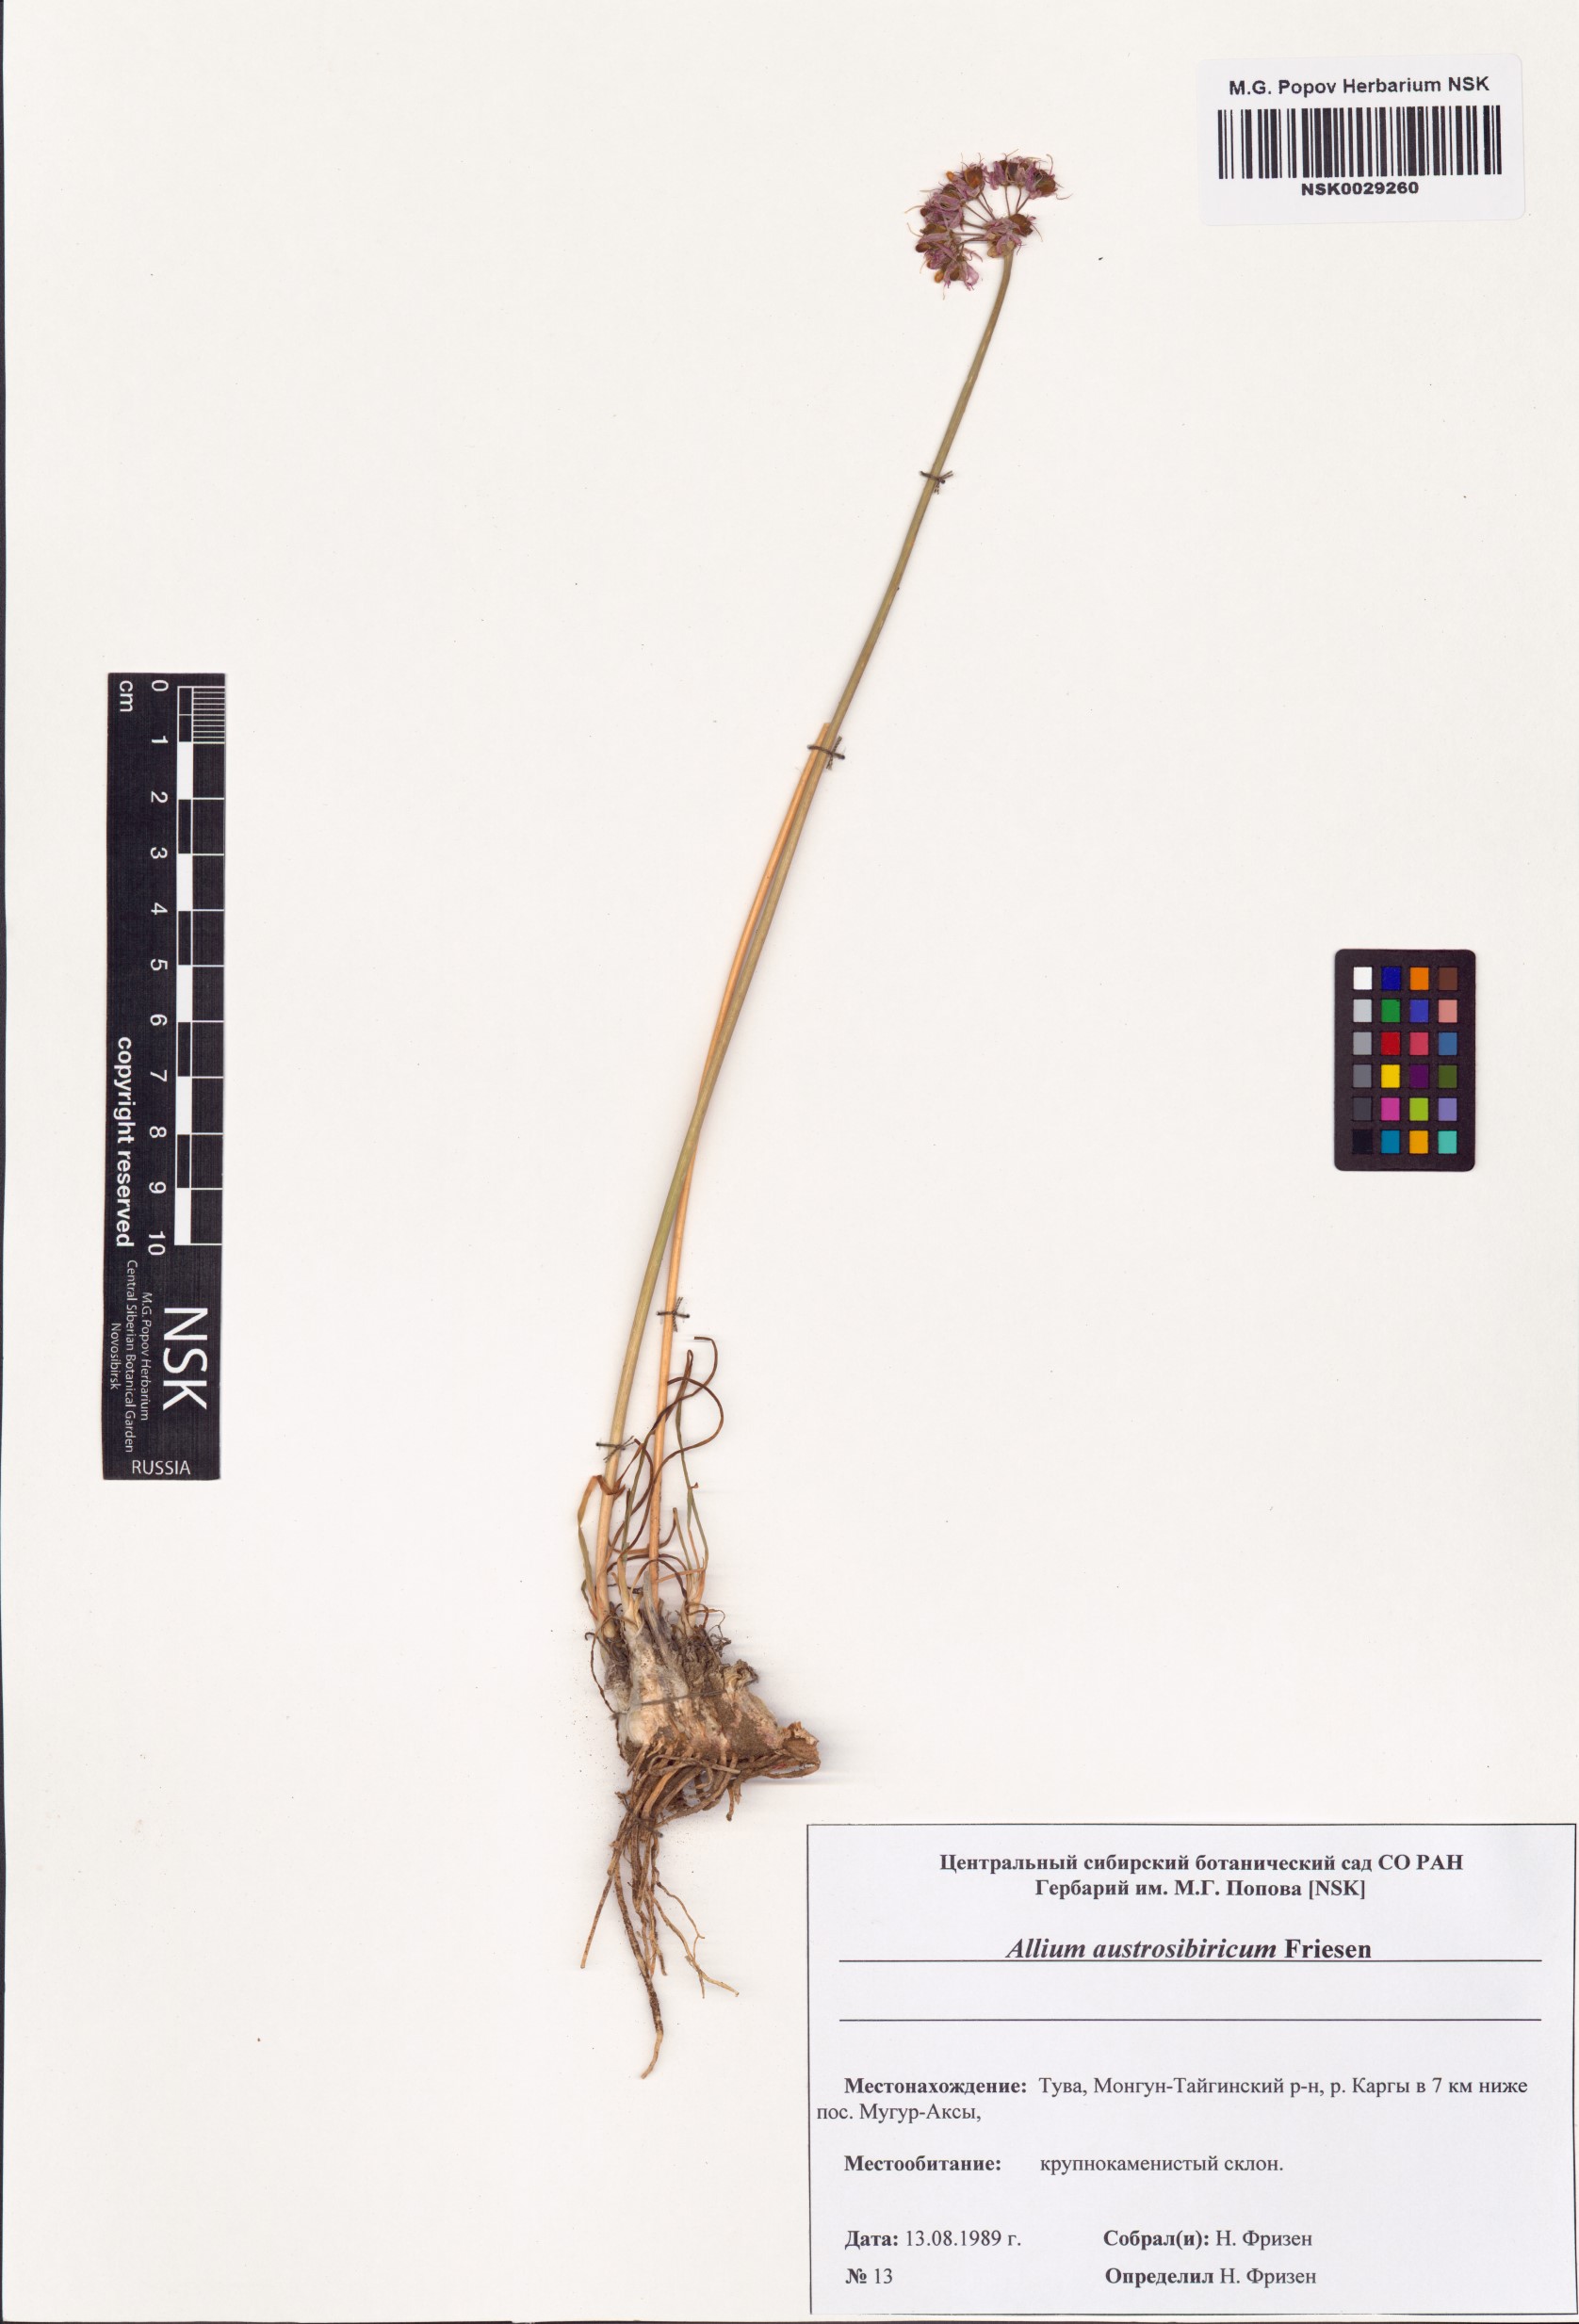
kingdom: Plantae
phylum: Tracheophyta
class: Liliopsida
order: Asparagales
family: Amaryllidaceae
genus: Allium
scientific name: Allium austrosibiricum
